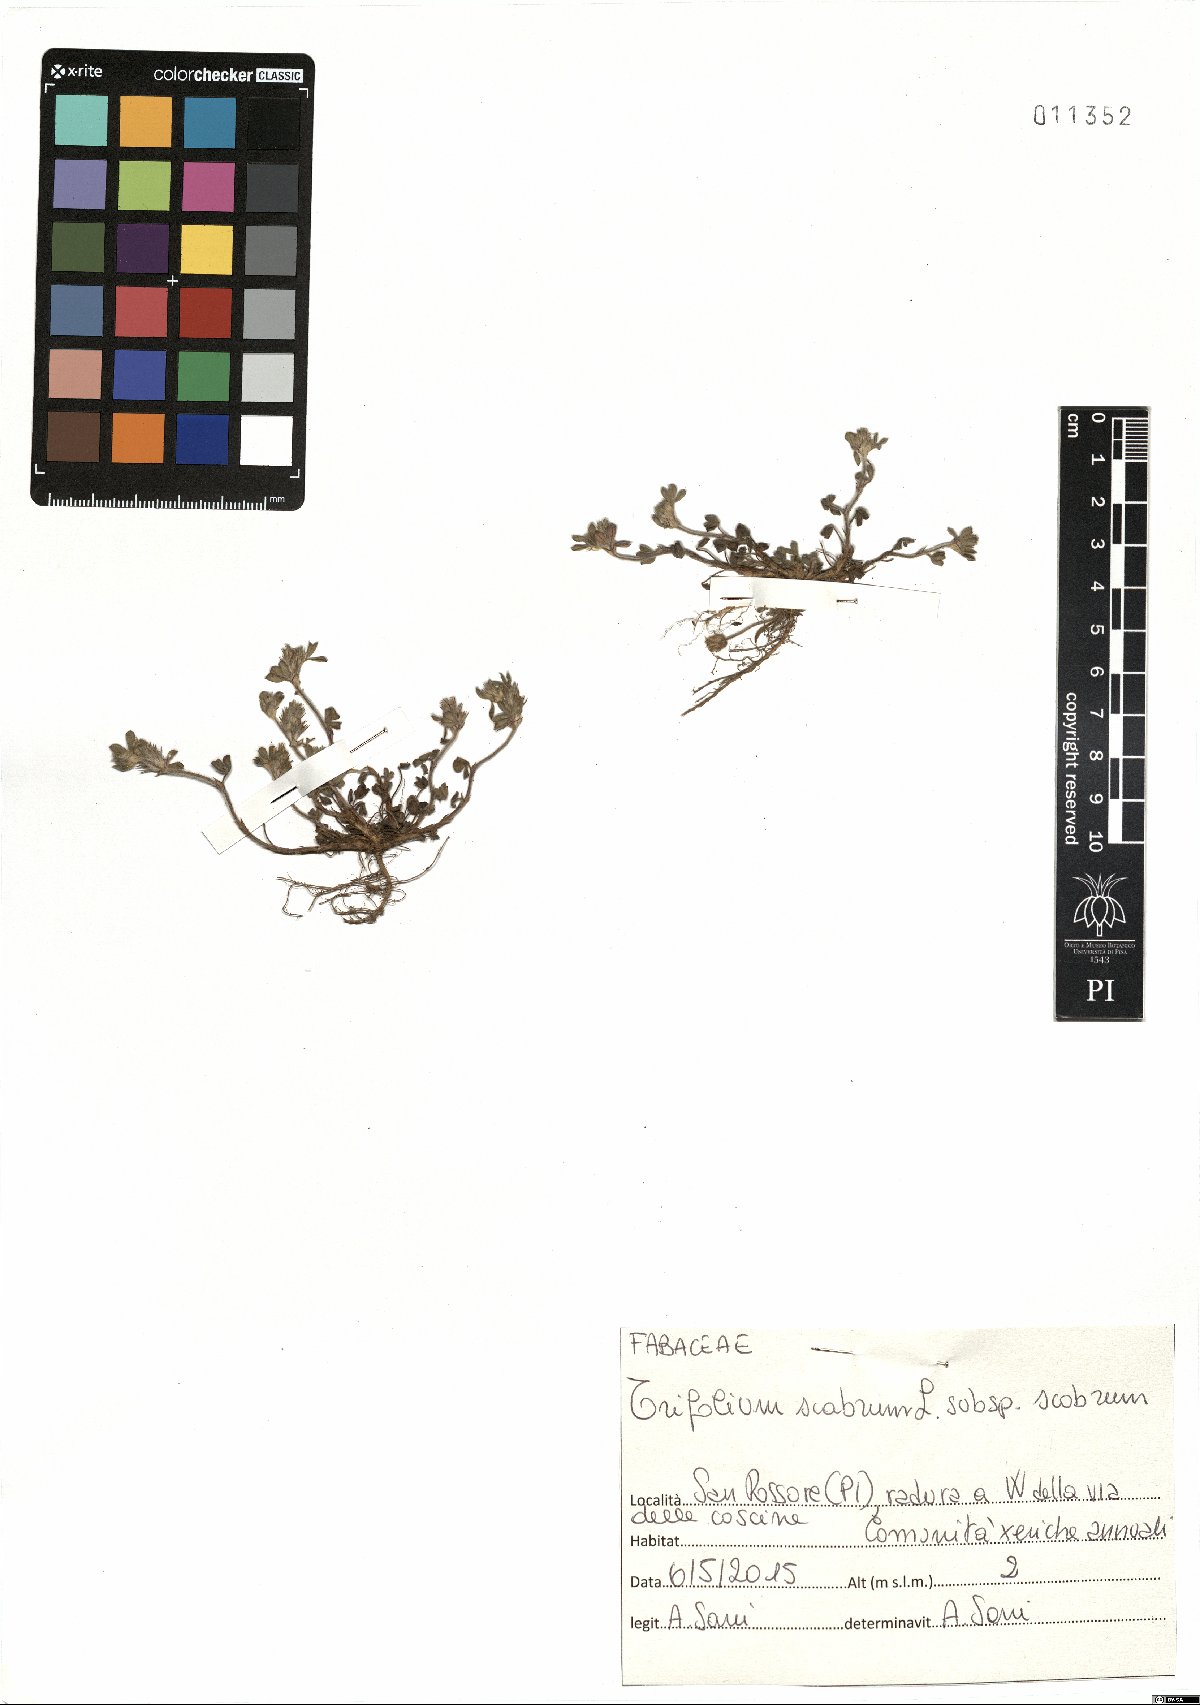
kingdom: Plantae
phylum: Tracheophyta
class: Magnoliopsida
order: Fabales
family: Fabaceae
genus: Trifolium
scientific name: Trifolium scabrum
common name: Rough clover
